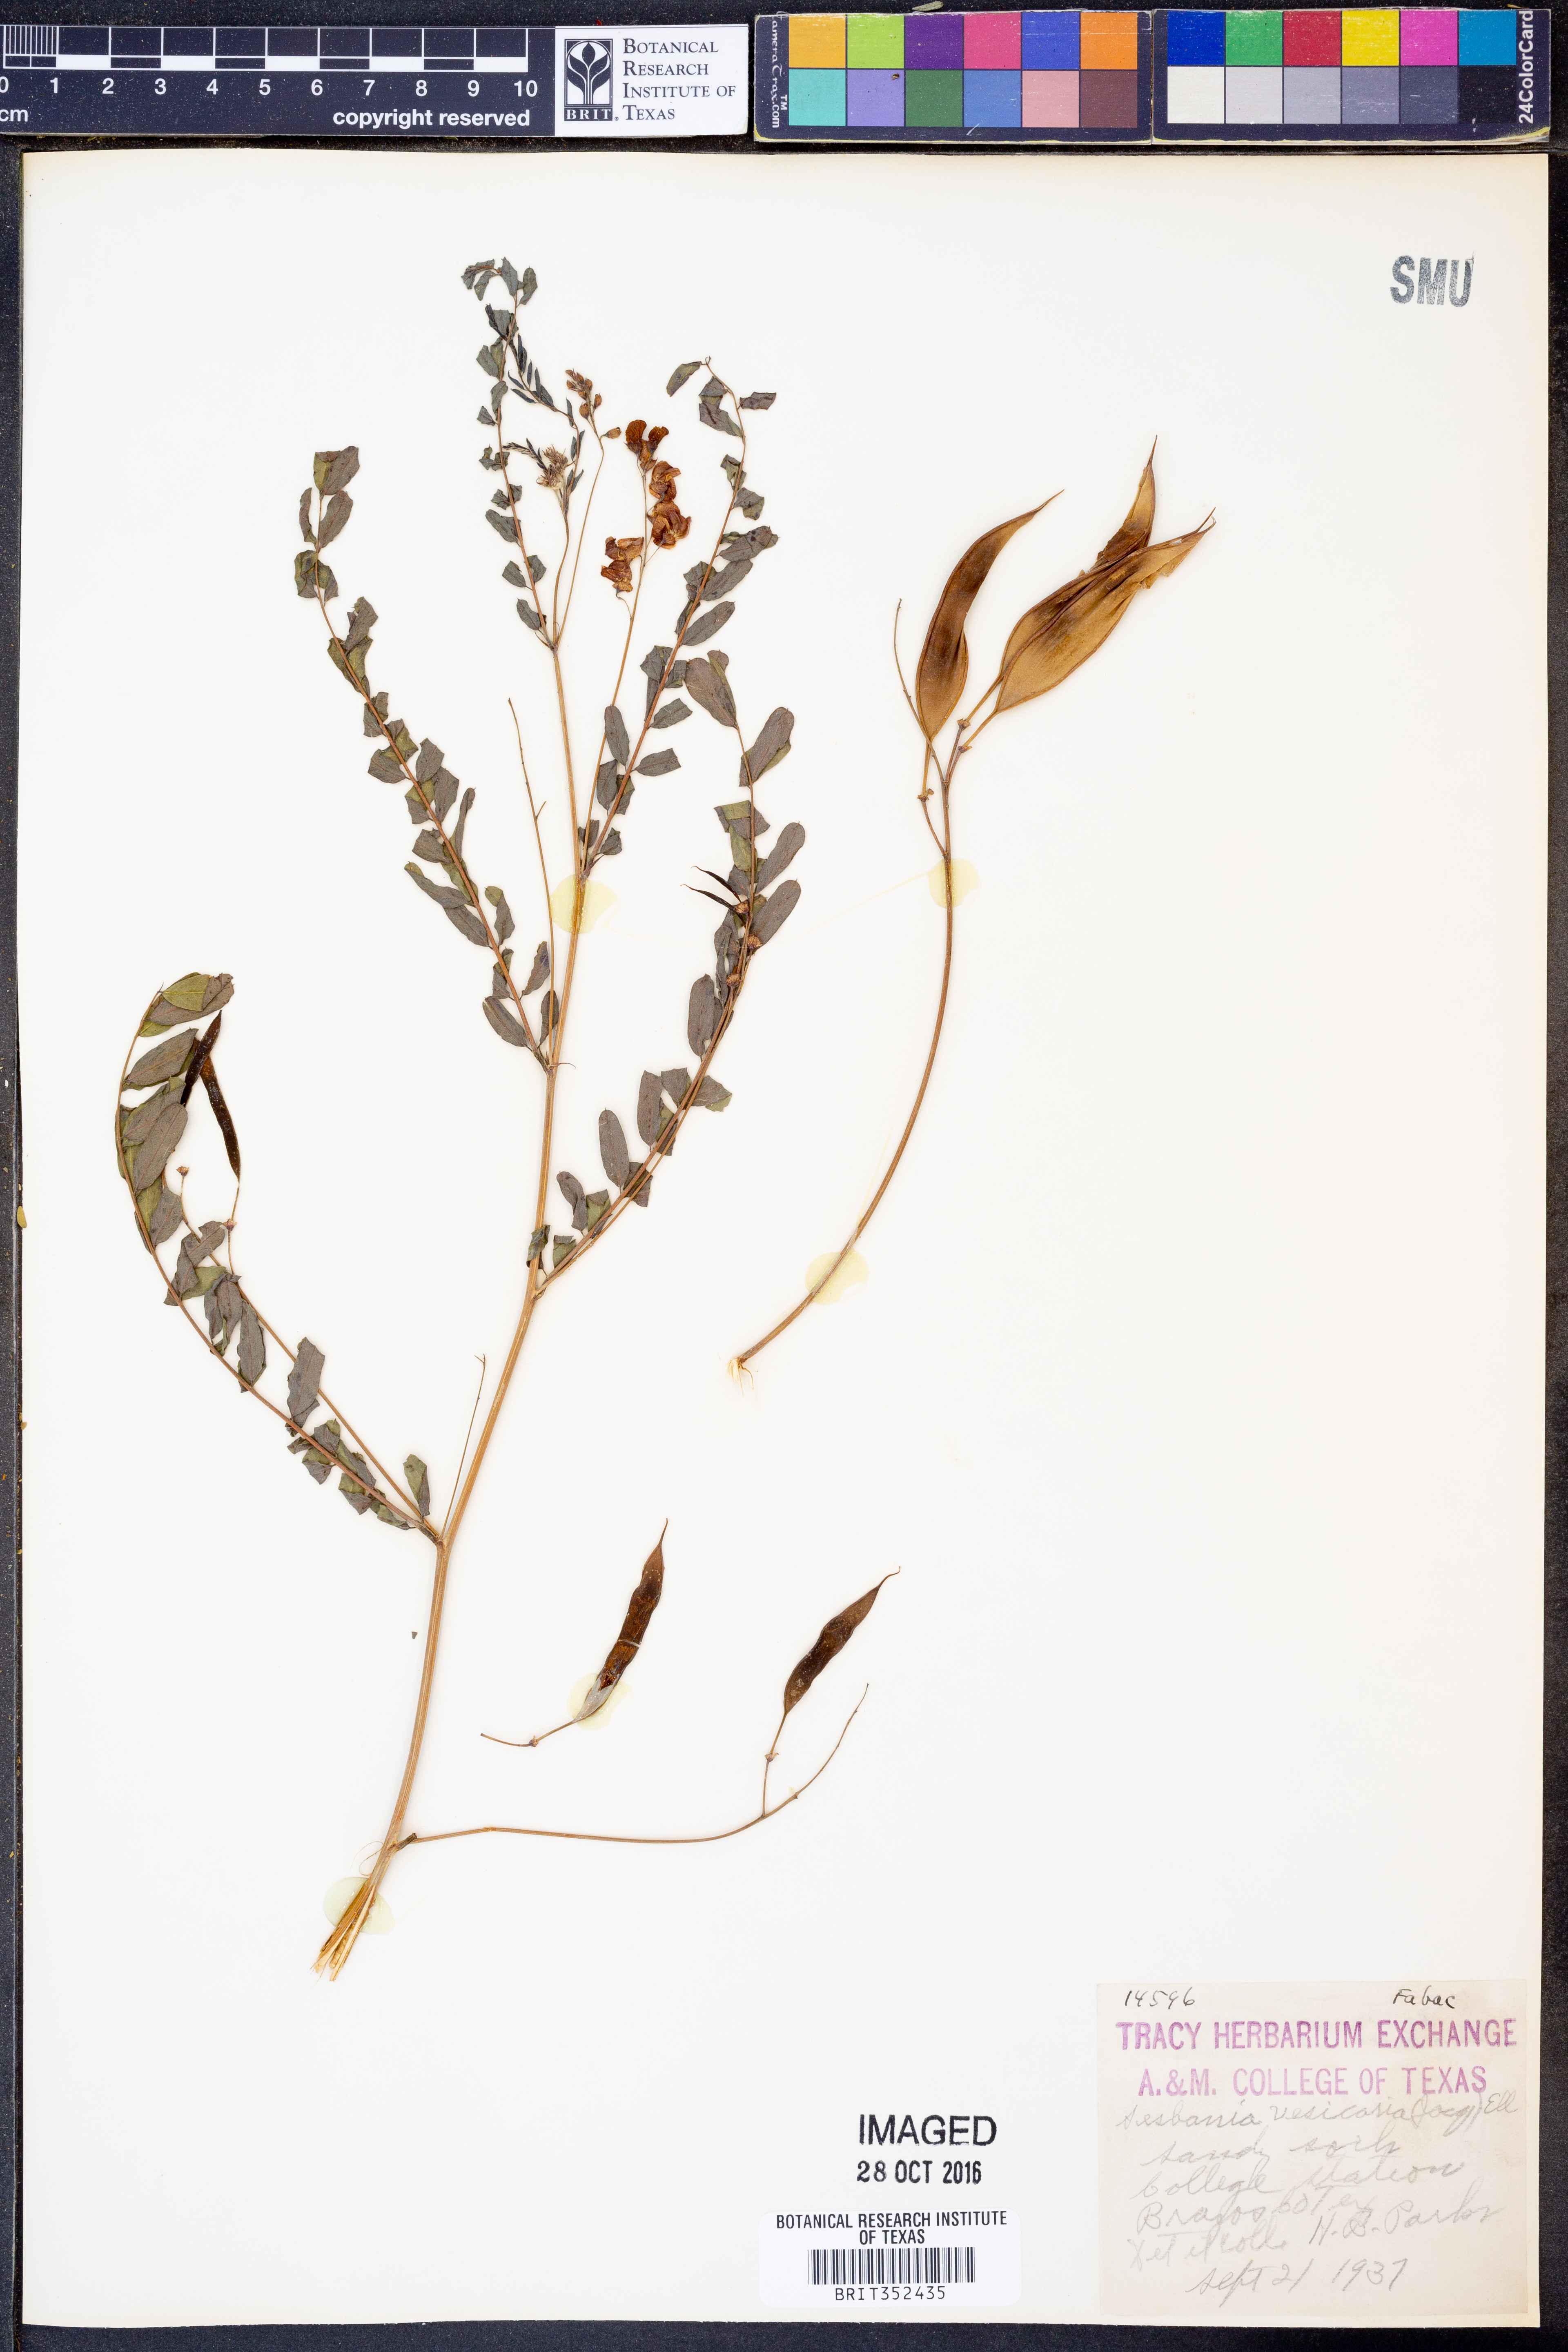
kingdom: Plantae
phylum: Tracheophyta
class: Magnoliopsida
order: Fabales
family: Fabaceae
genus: Sesbania
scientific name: Sesbania vesicaria
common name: Bagpod
